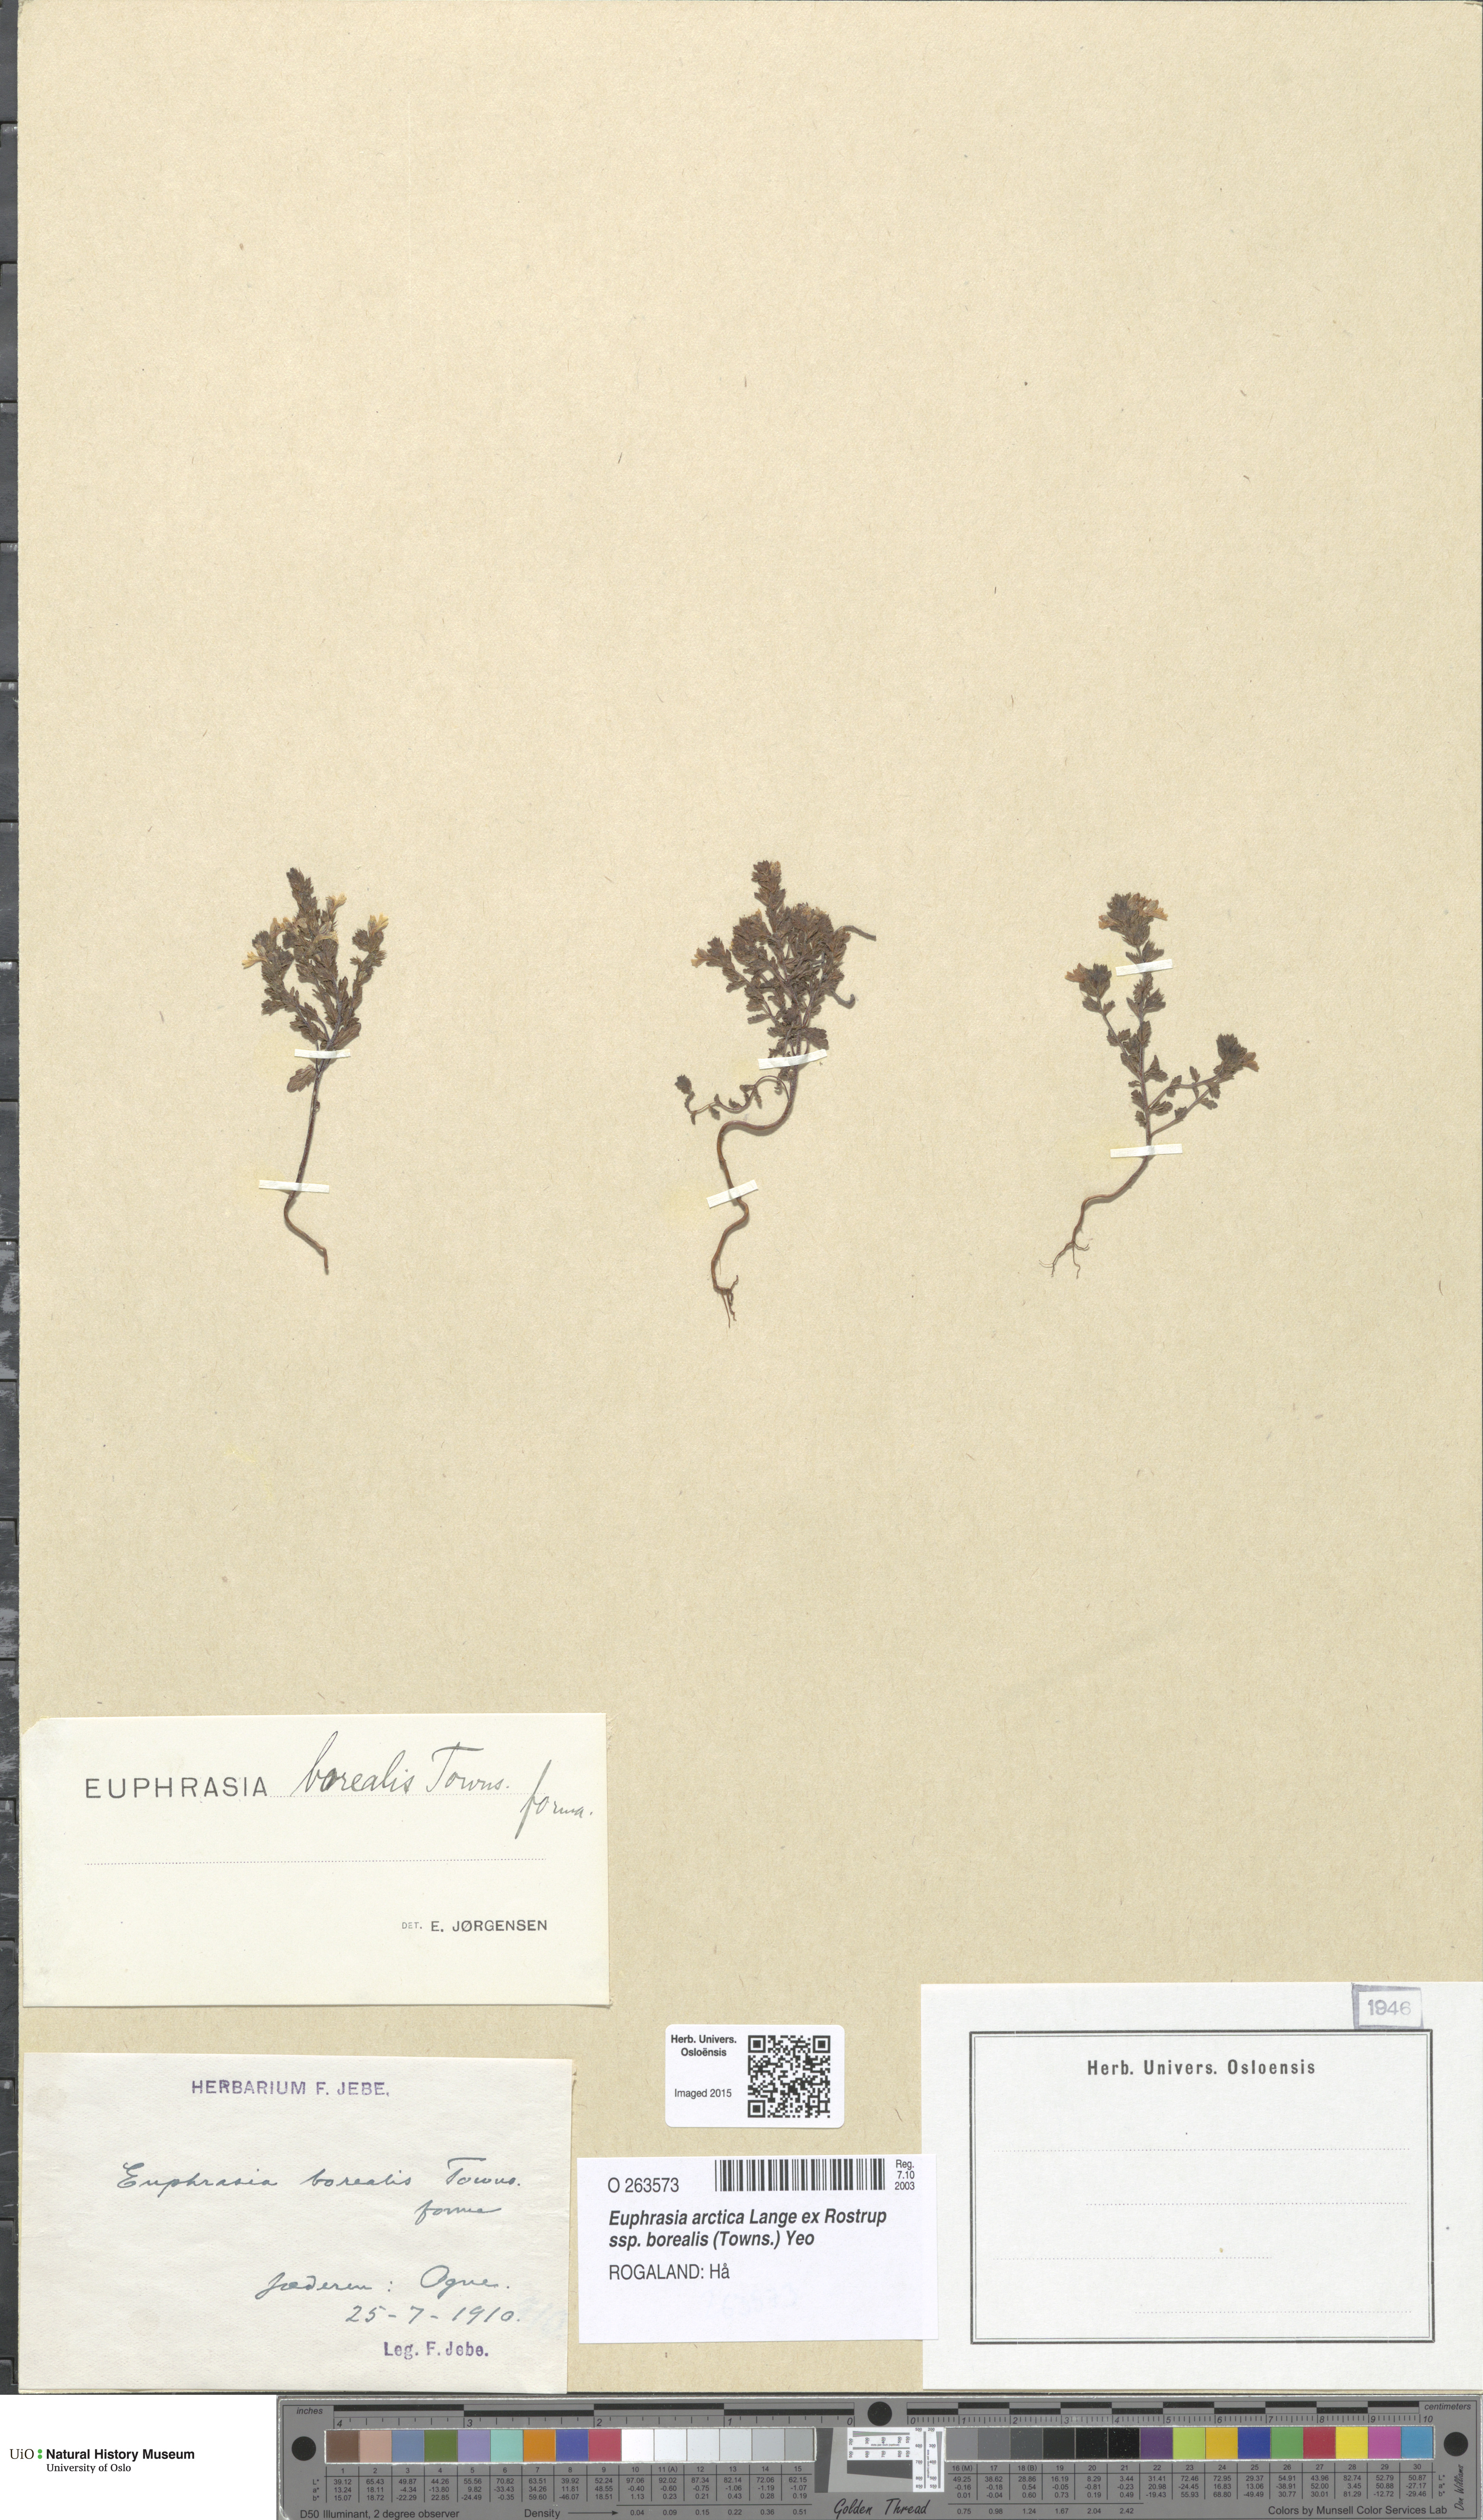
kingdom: Plantae
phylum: Tracheophyta
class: Magnoliopsida
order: Lamiales
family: Orobanchaceae
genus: Euphrasia
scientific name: Euphrasia arctica
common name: An eyebright
